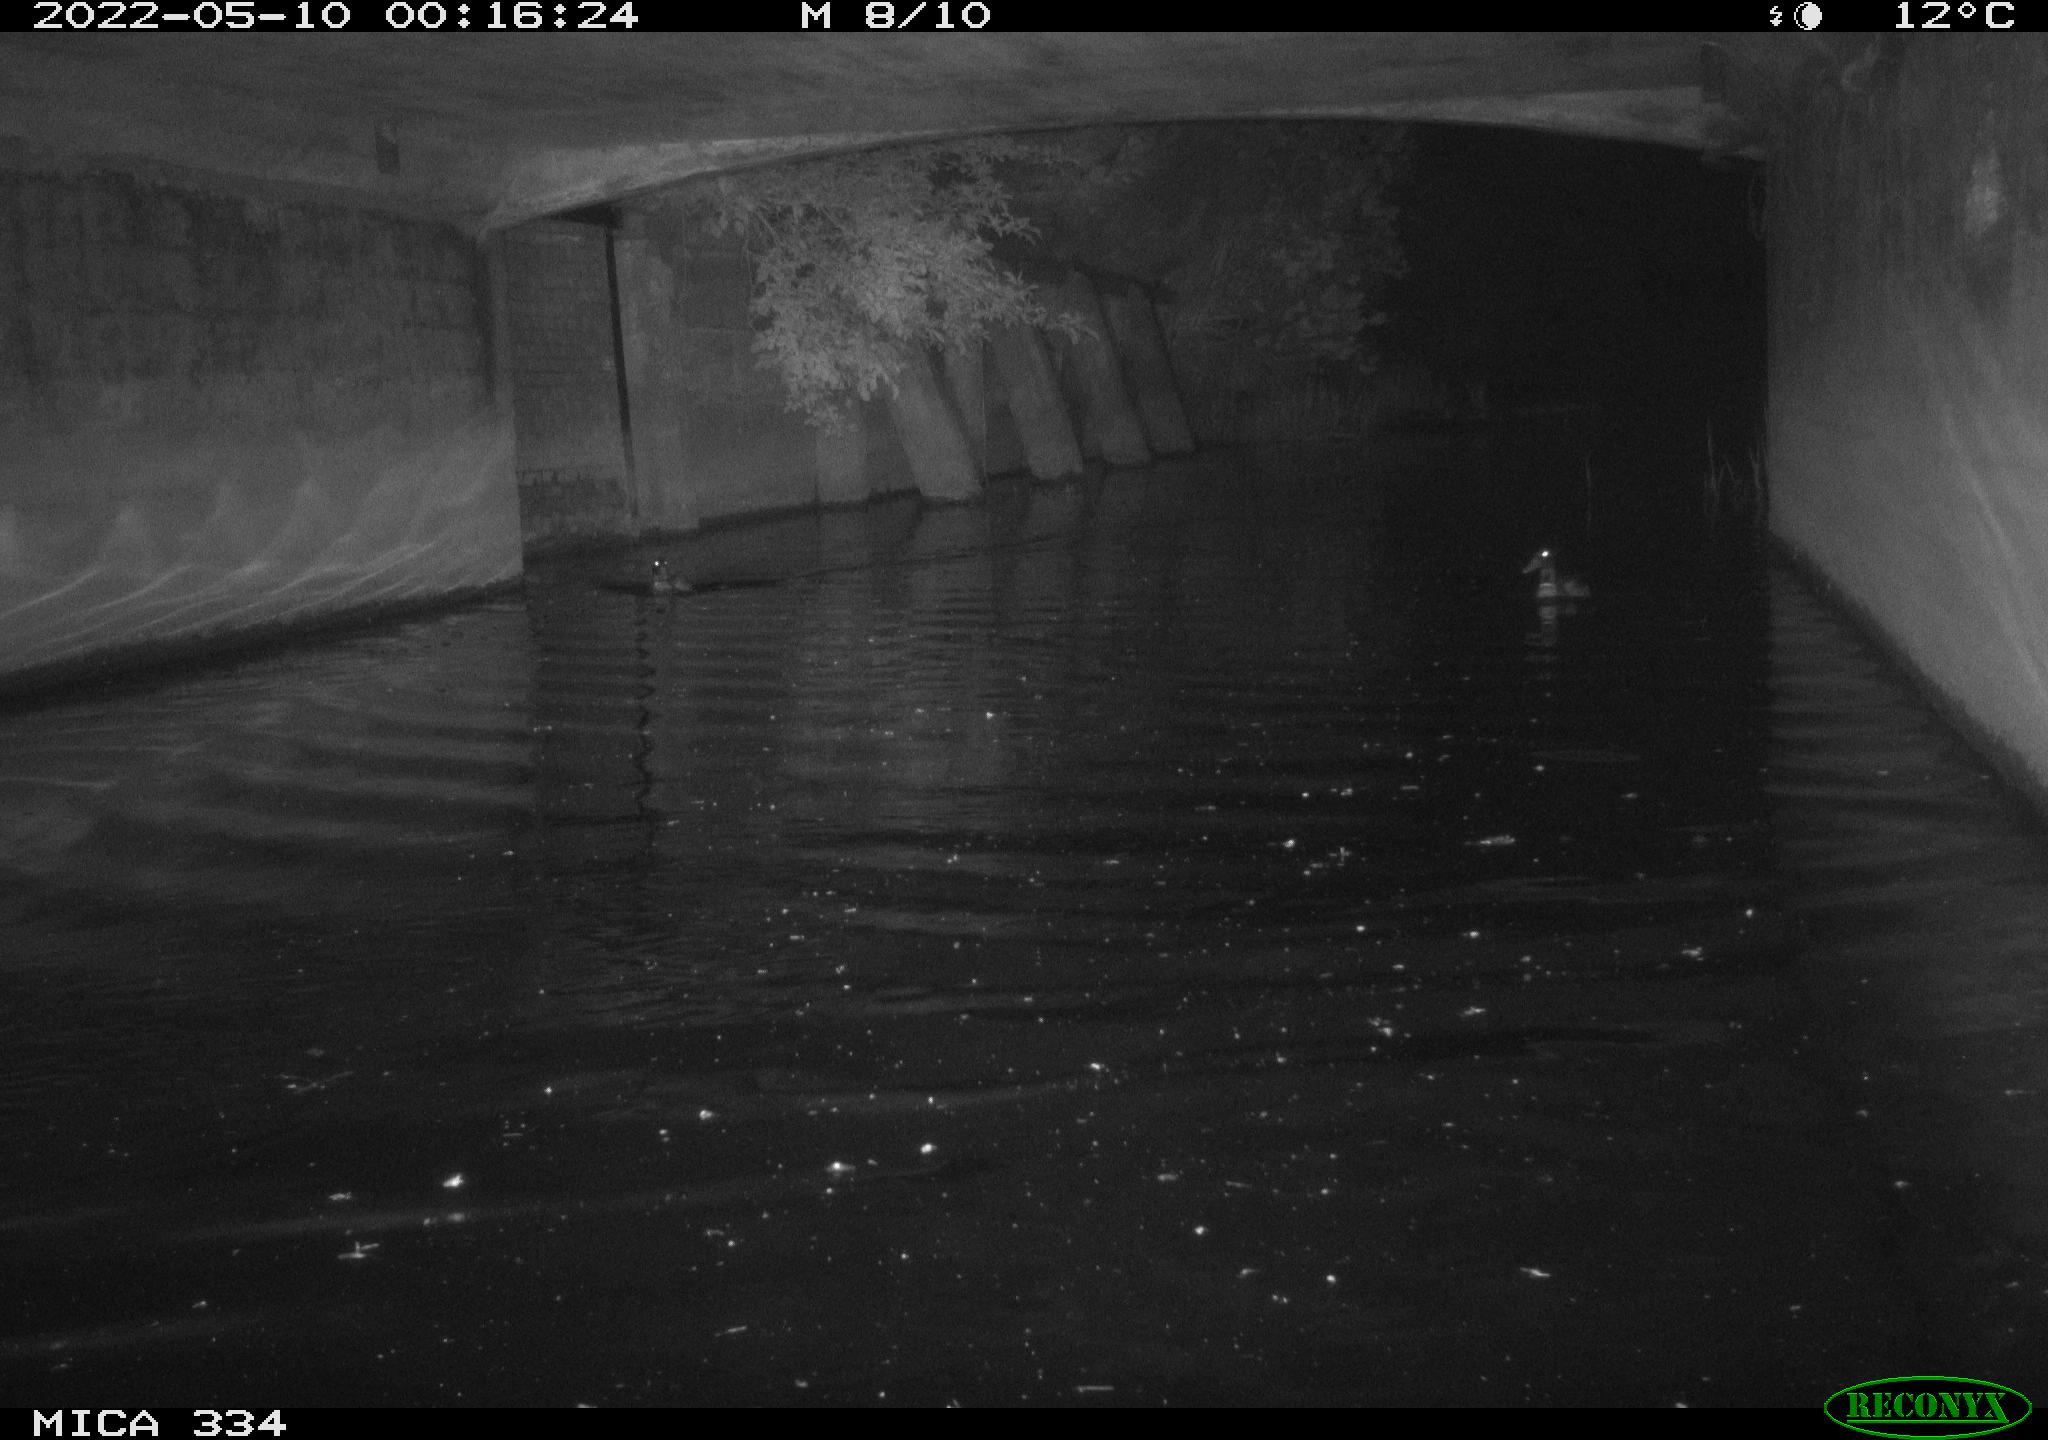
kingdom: Animalia
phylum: Chordata
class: Aves
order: Anseriformes
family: Anatidae
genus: Anas
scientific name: Anas platyrhynchos
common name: Mallard
